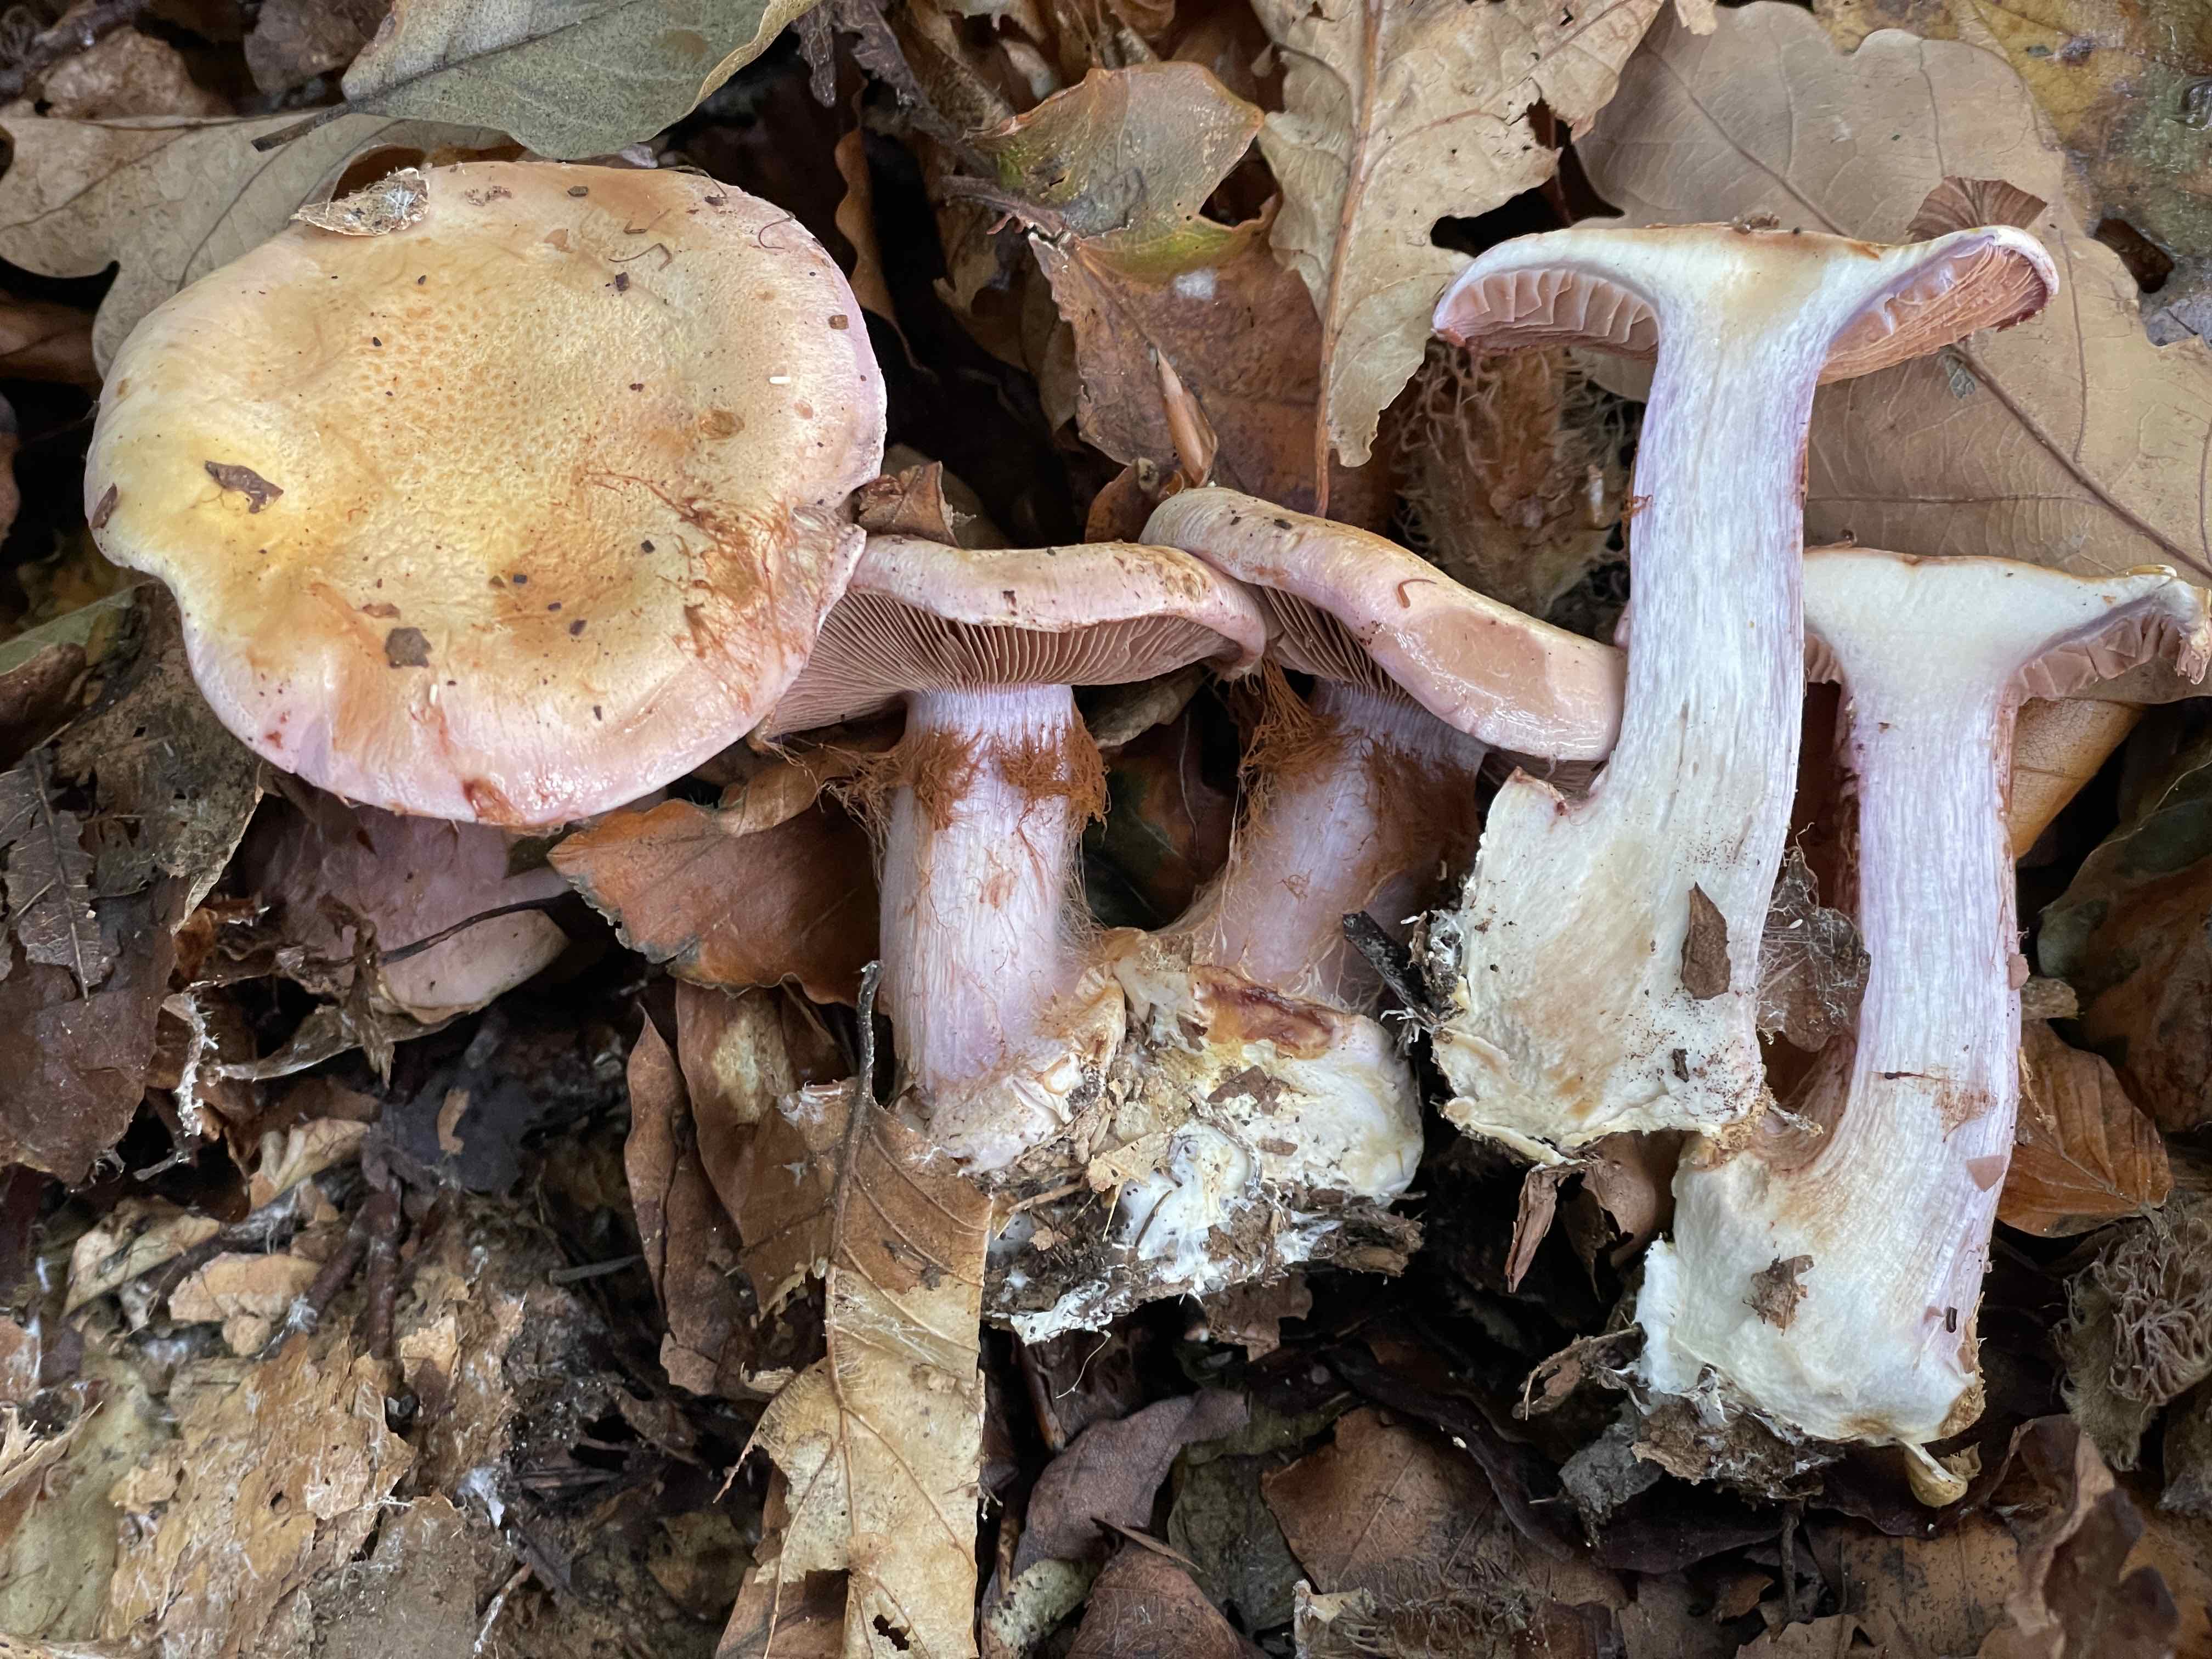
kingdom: Fungi
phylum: Basidiomycota
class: Agaricomycetes
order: Agaricales
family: Cortinariaceae
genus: Calonarius
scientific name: Calonarius suaveolens
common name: sødtduftende slørhat
